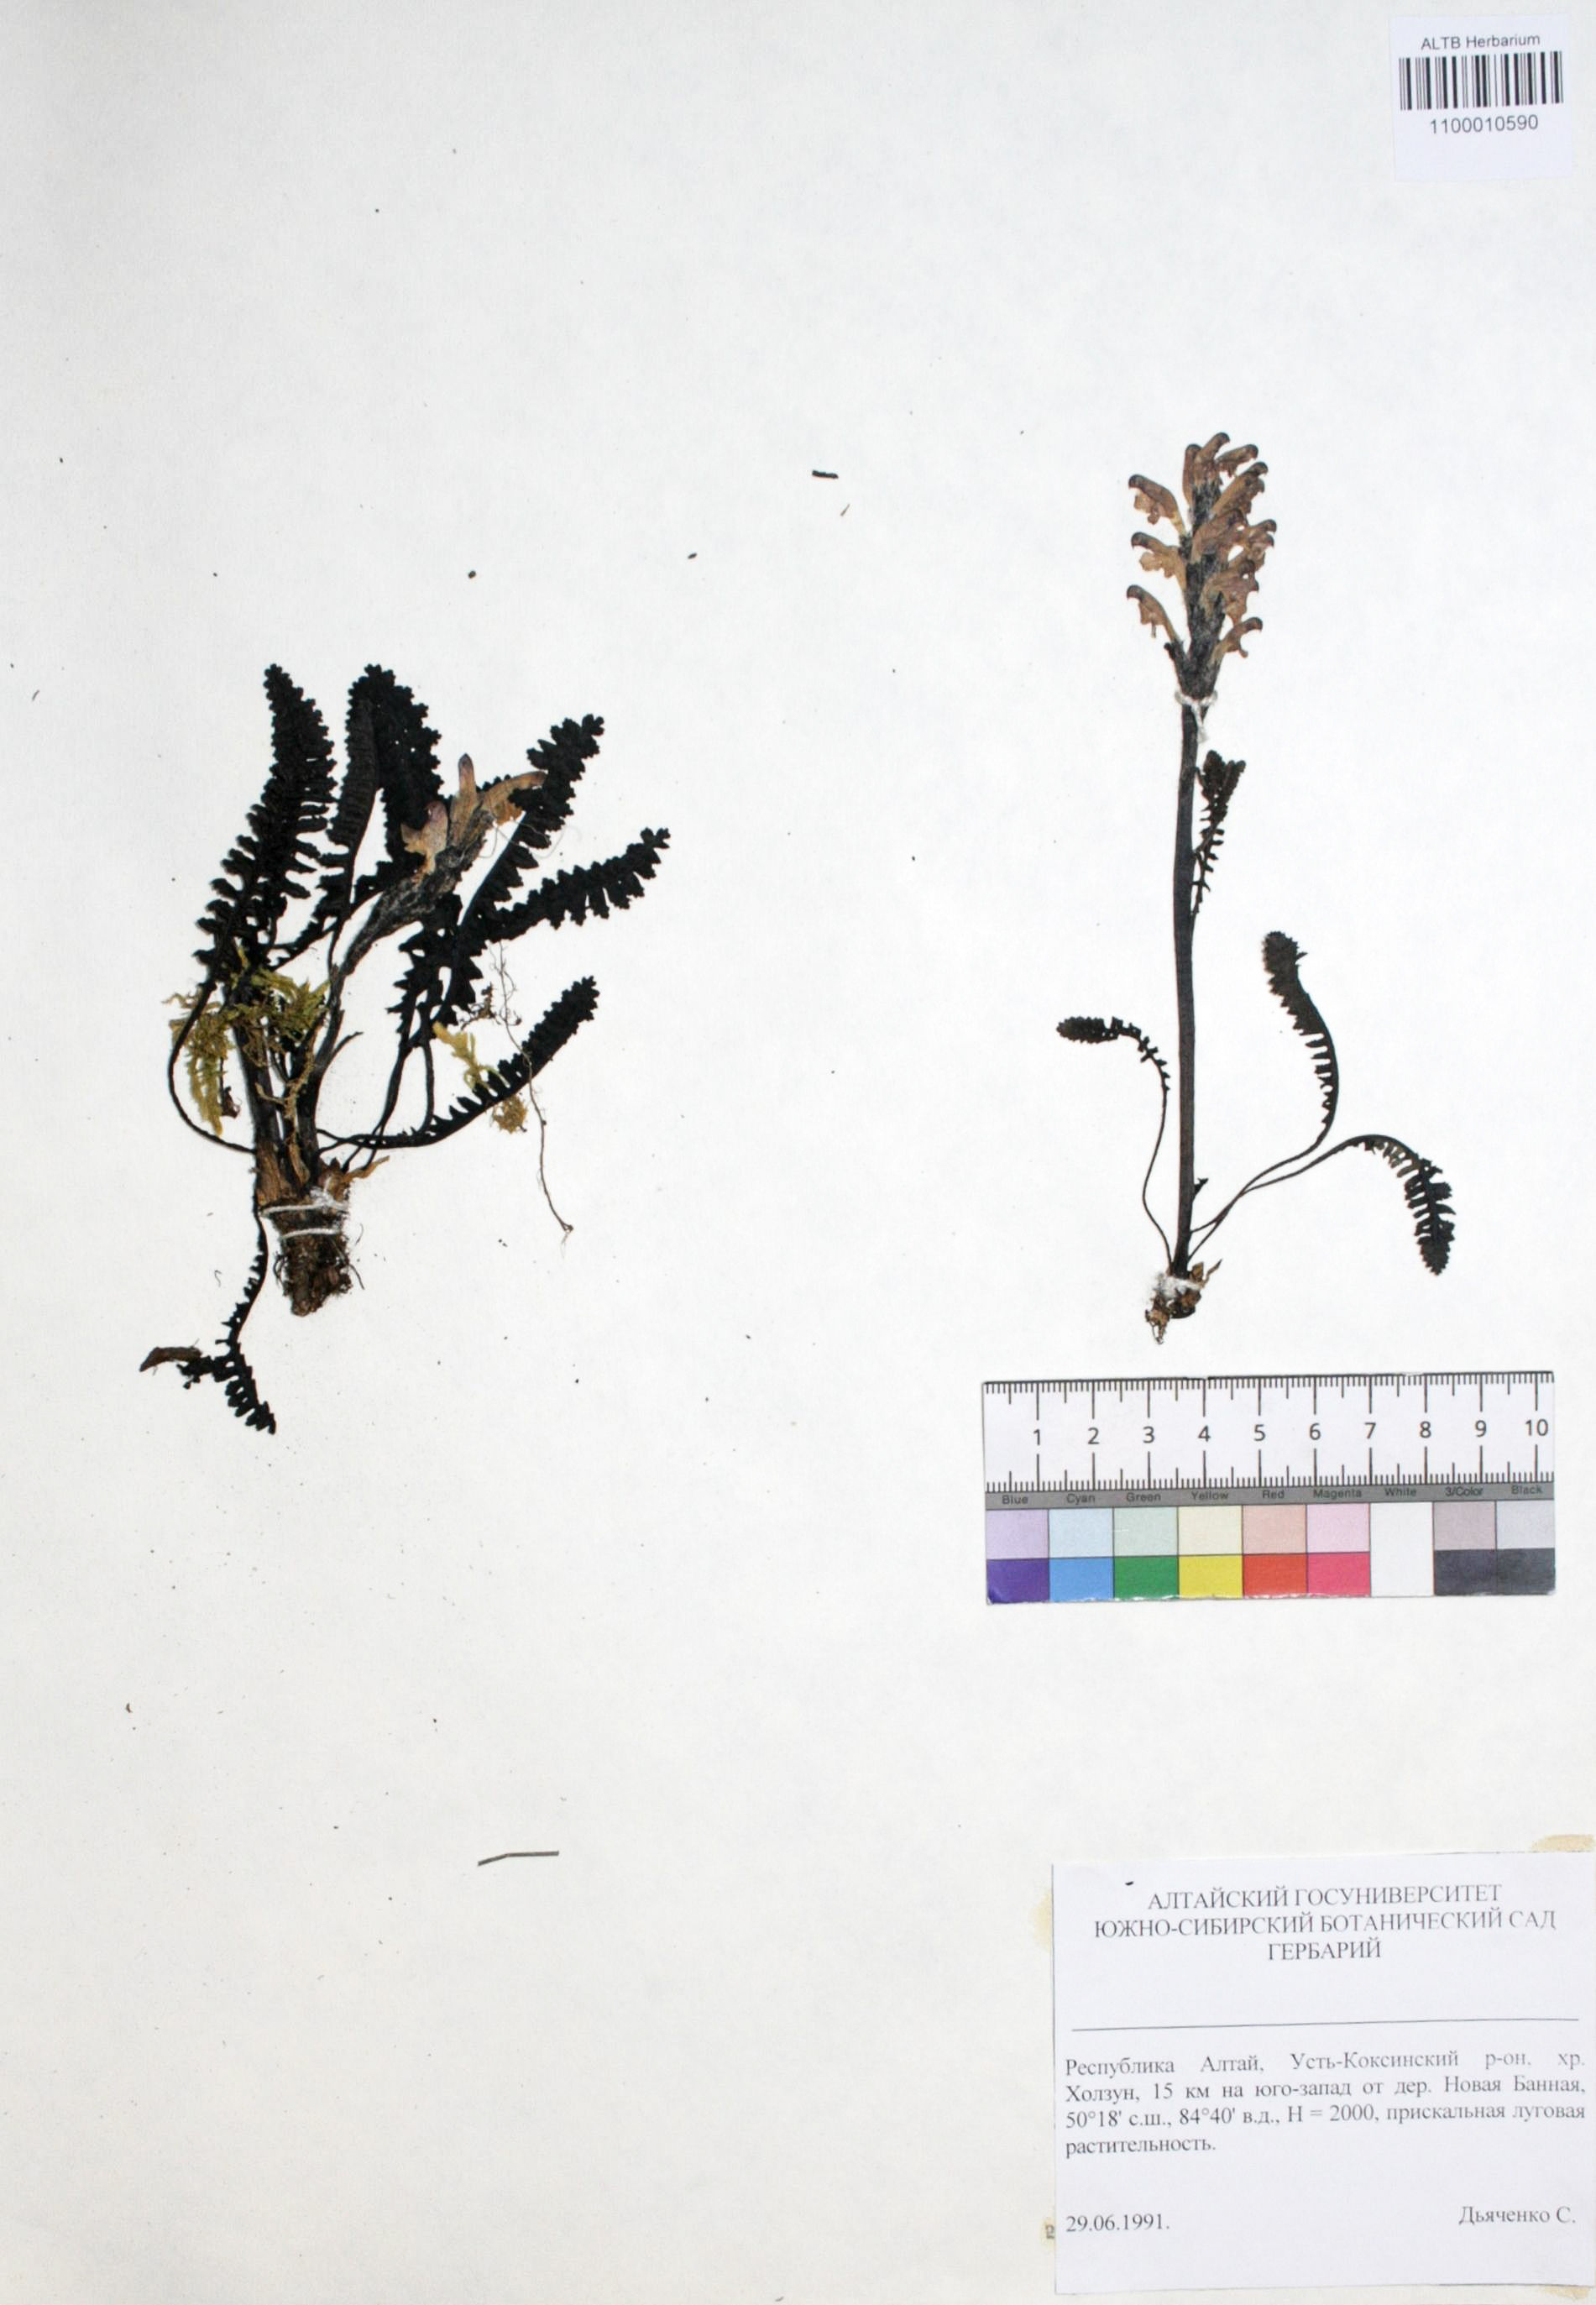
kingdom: Plantae
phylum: Tracheophyta
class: Magnoliopsida
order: Lamiales
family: Orobanchaceae
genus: Pedicularis
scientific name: Pedicularis uliginosa
